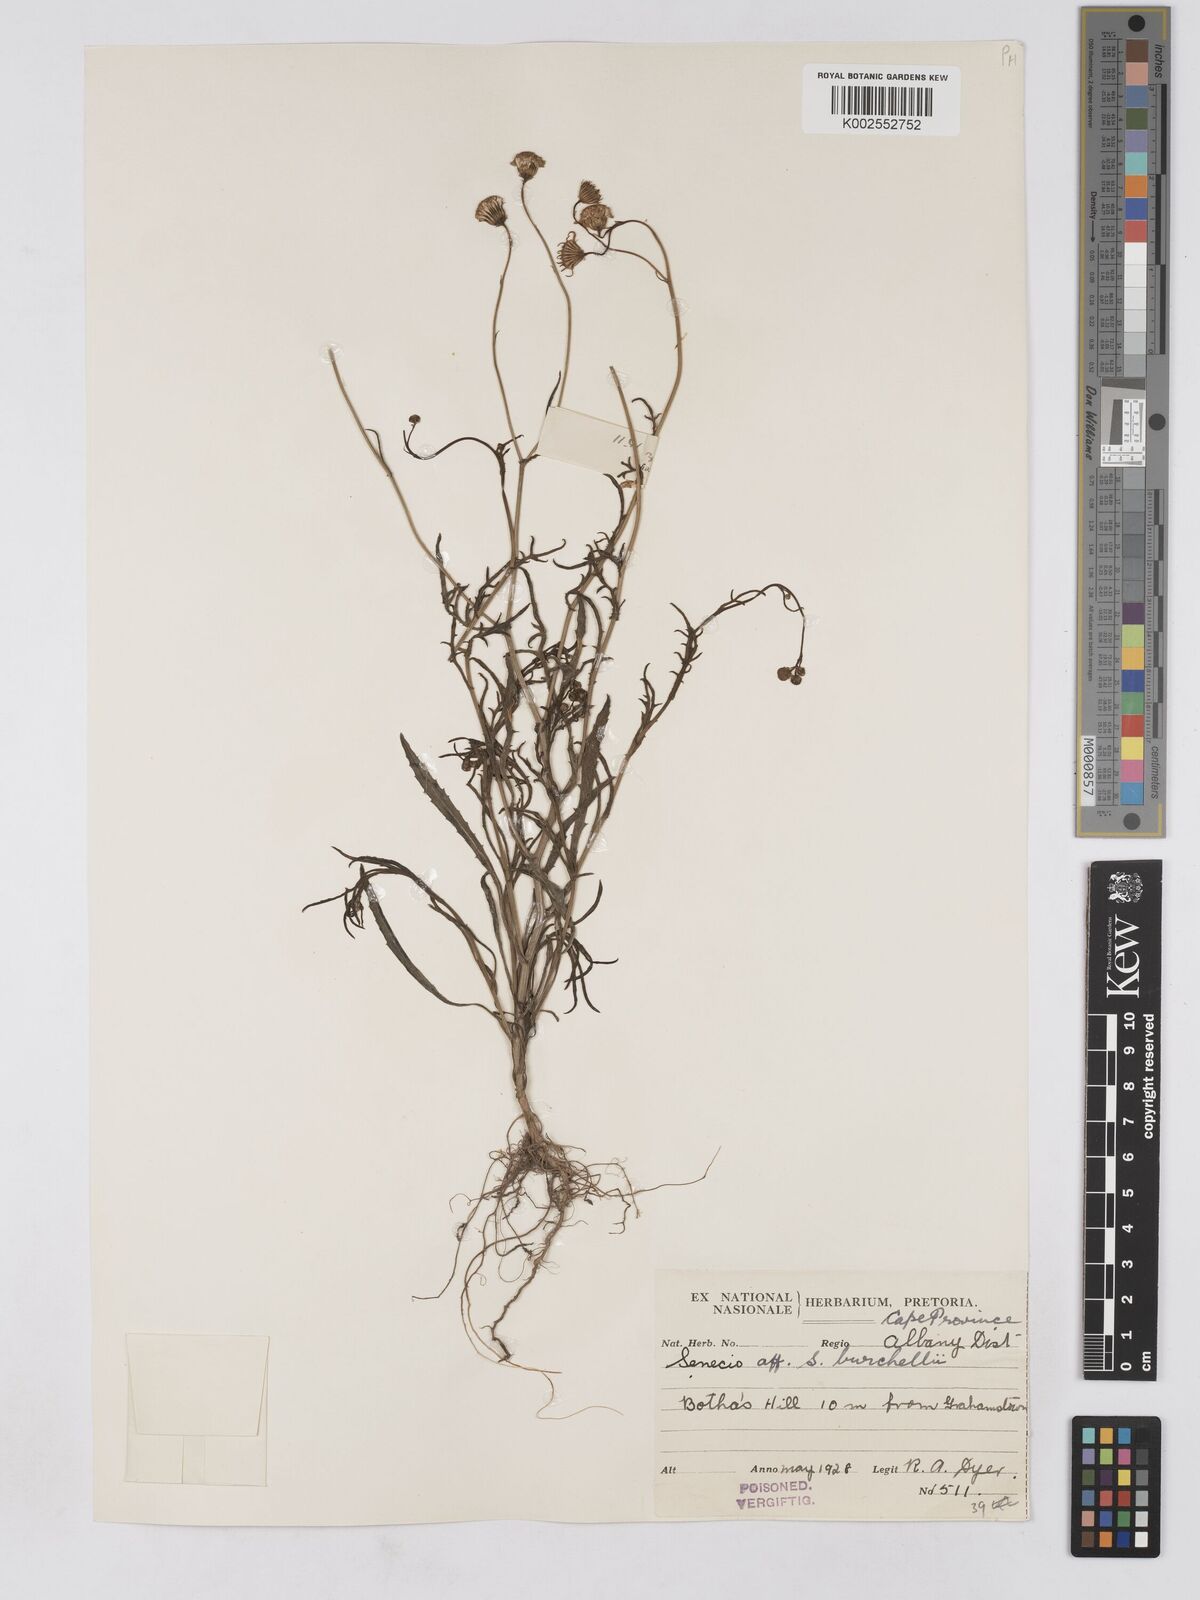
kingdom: Plantae
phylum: Tracheophyta
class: Magnoliopsida
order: Asterales
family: Asteraceae
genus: Senecio
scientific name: Senecio madagascariensis
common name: Madagascar ragwort
